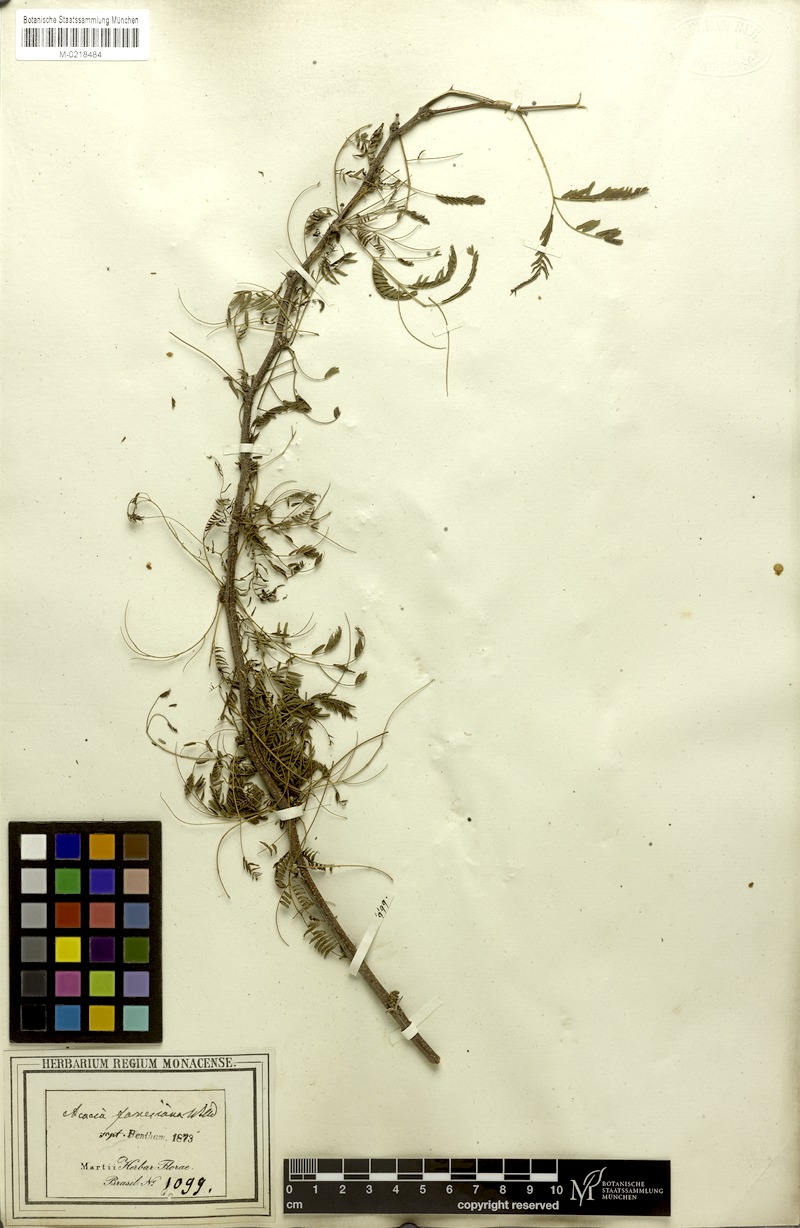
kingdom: Plantae
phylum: Tracheophyta
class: Magnoliopsida
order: Fabales
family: Fabaceae
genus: Vachellia
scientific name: Vachellia farnesiana
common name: Sweet acacia
